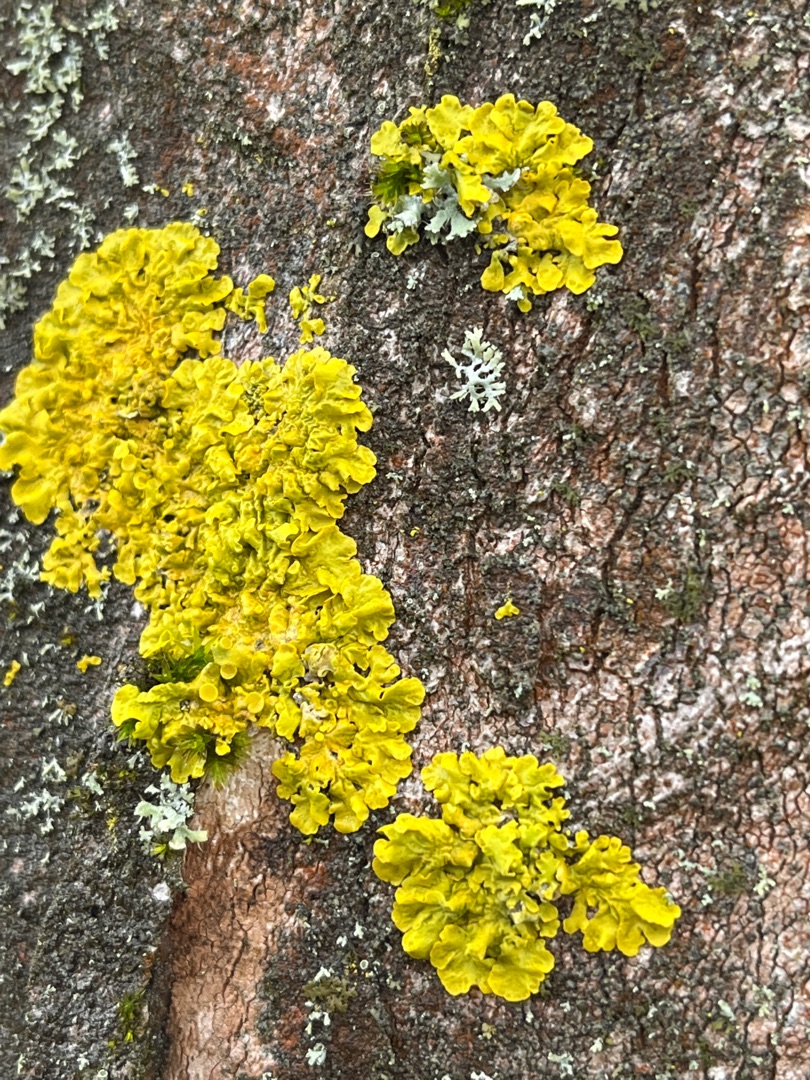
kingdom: Fungi
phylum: Ascomycota
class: Lecanoromycetes
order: Teloschistales
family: Teloschistaceae
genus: Xanthoria
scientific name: Xanthoria parietina
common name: Almindelig væggelav
